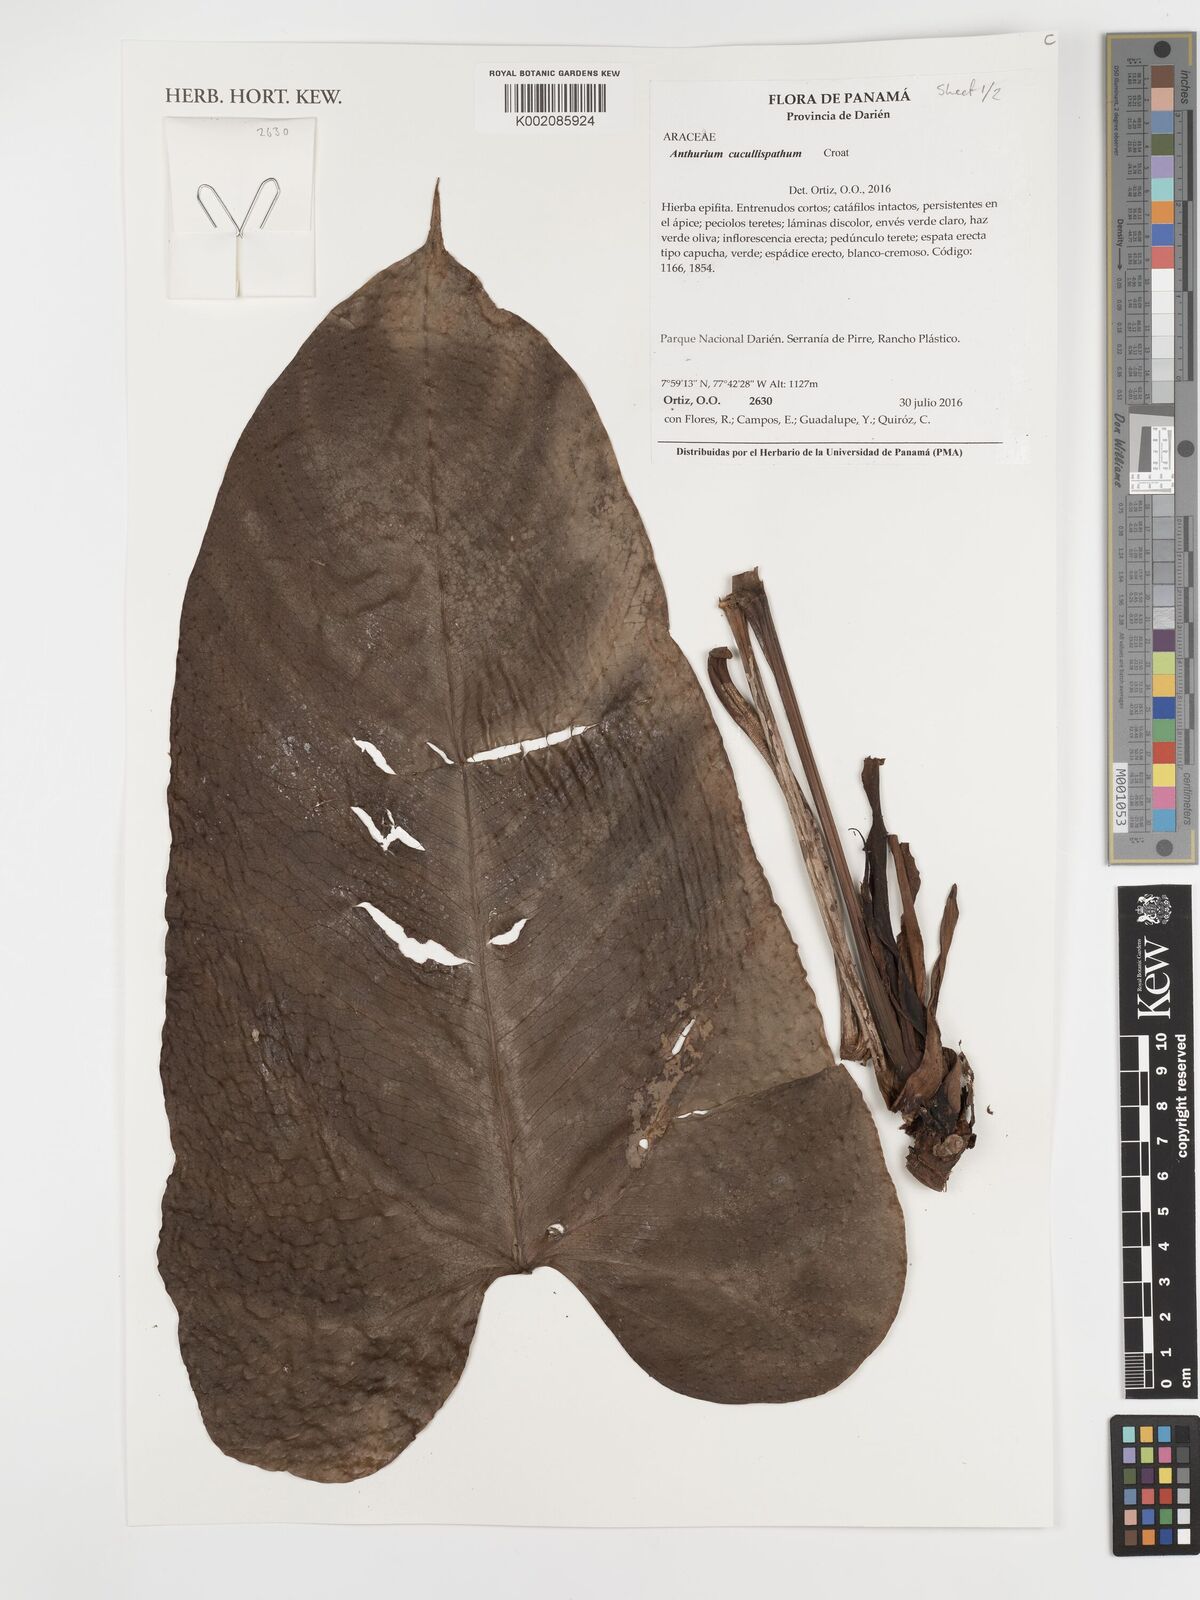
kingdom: Plantae
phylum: Tracheophyta
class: Liliopsida
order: Alismatales
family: Araceae
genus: Anthurium
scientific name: Anthurium cucullispathum
